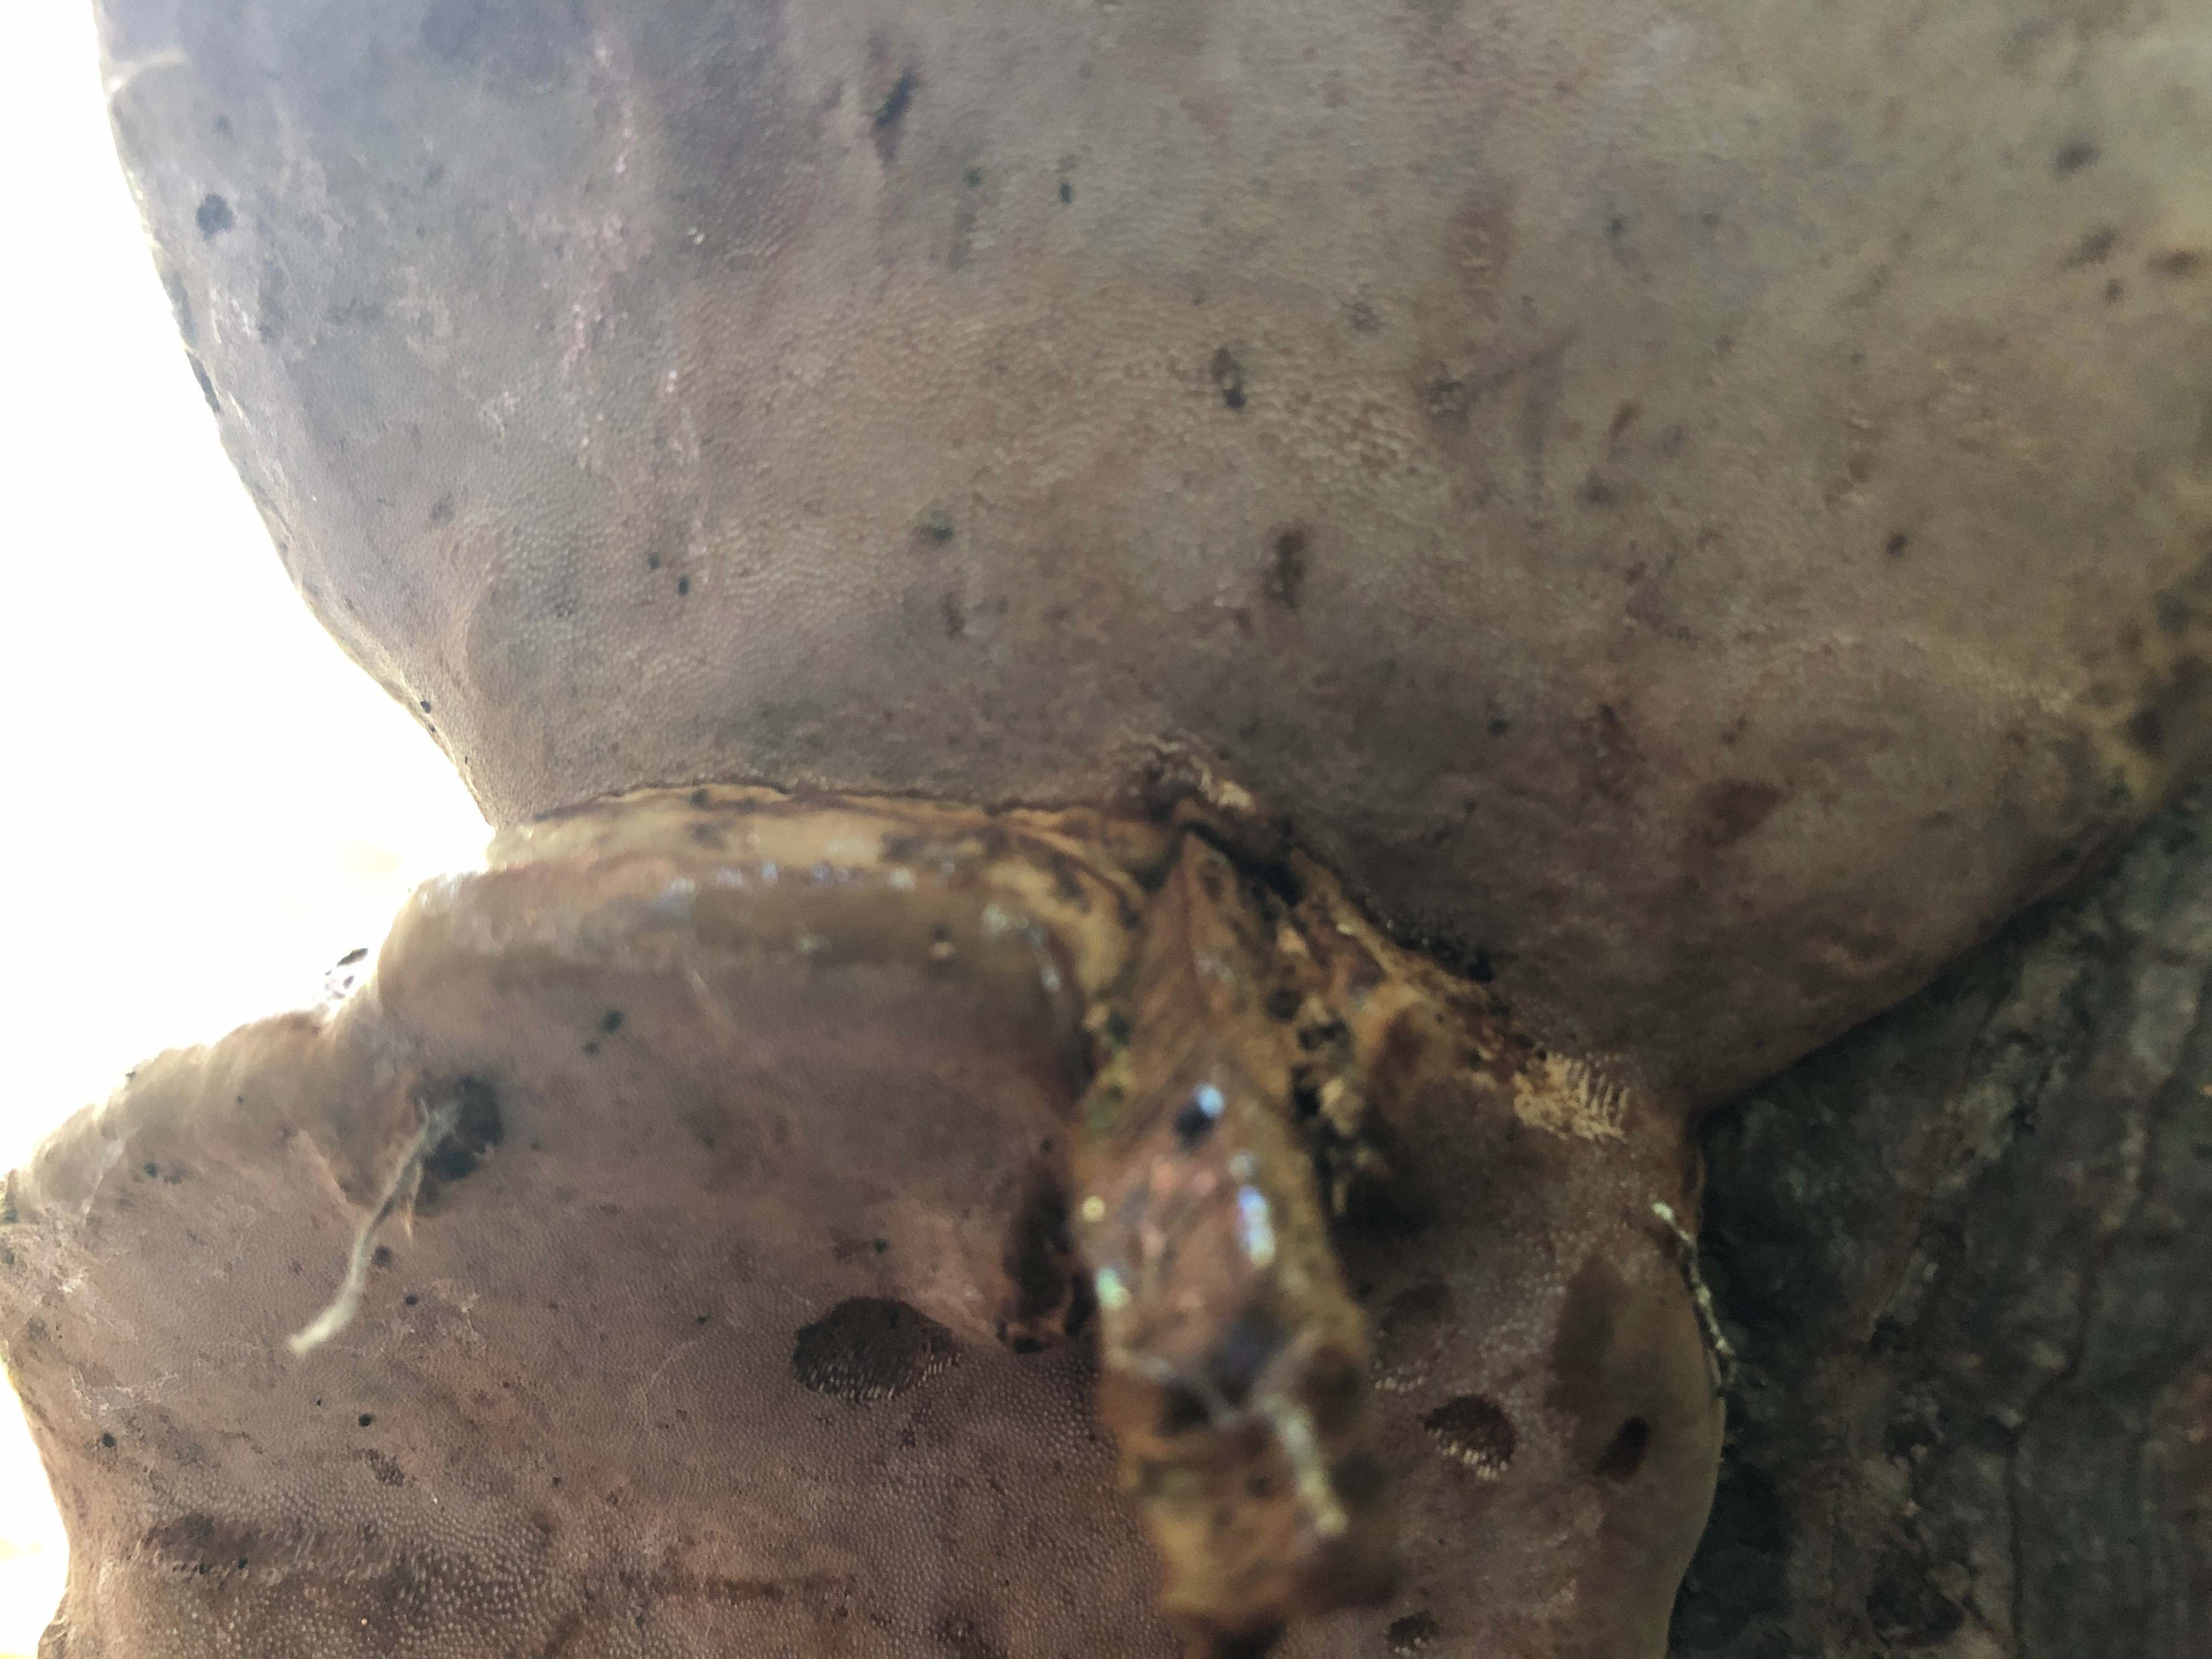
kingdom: Fungi
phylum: Basidiomycota
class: Agaricomycetes
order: Polyporales
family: Polyporaceae
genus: Fomes
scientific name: Fomes fomentarius
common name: tøndersvamp
